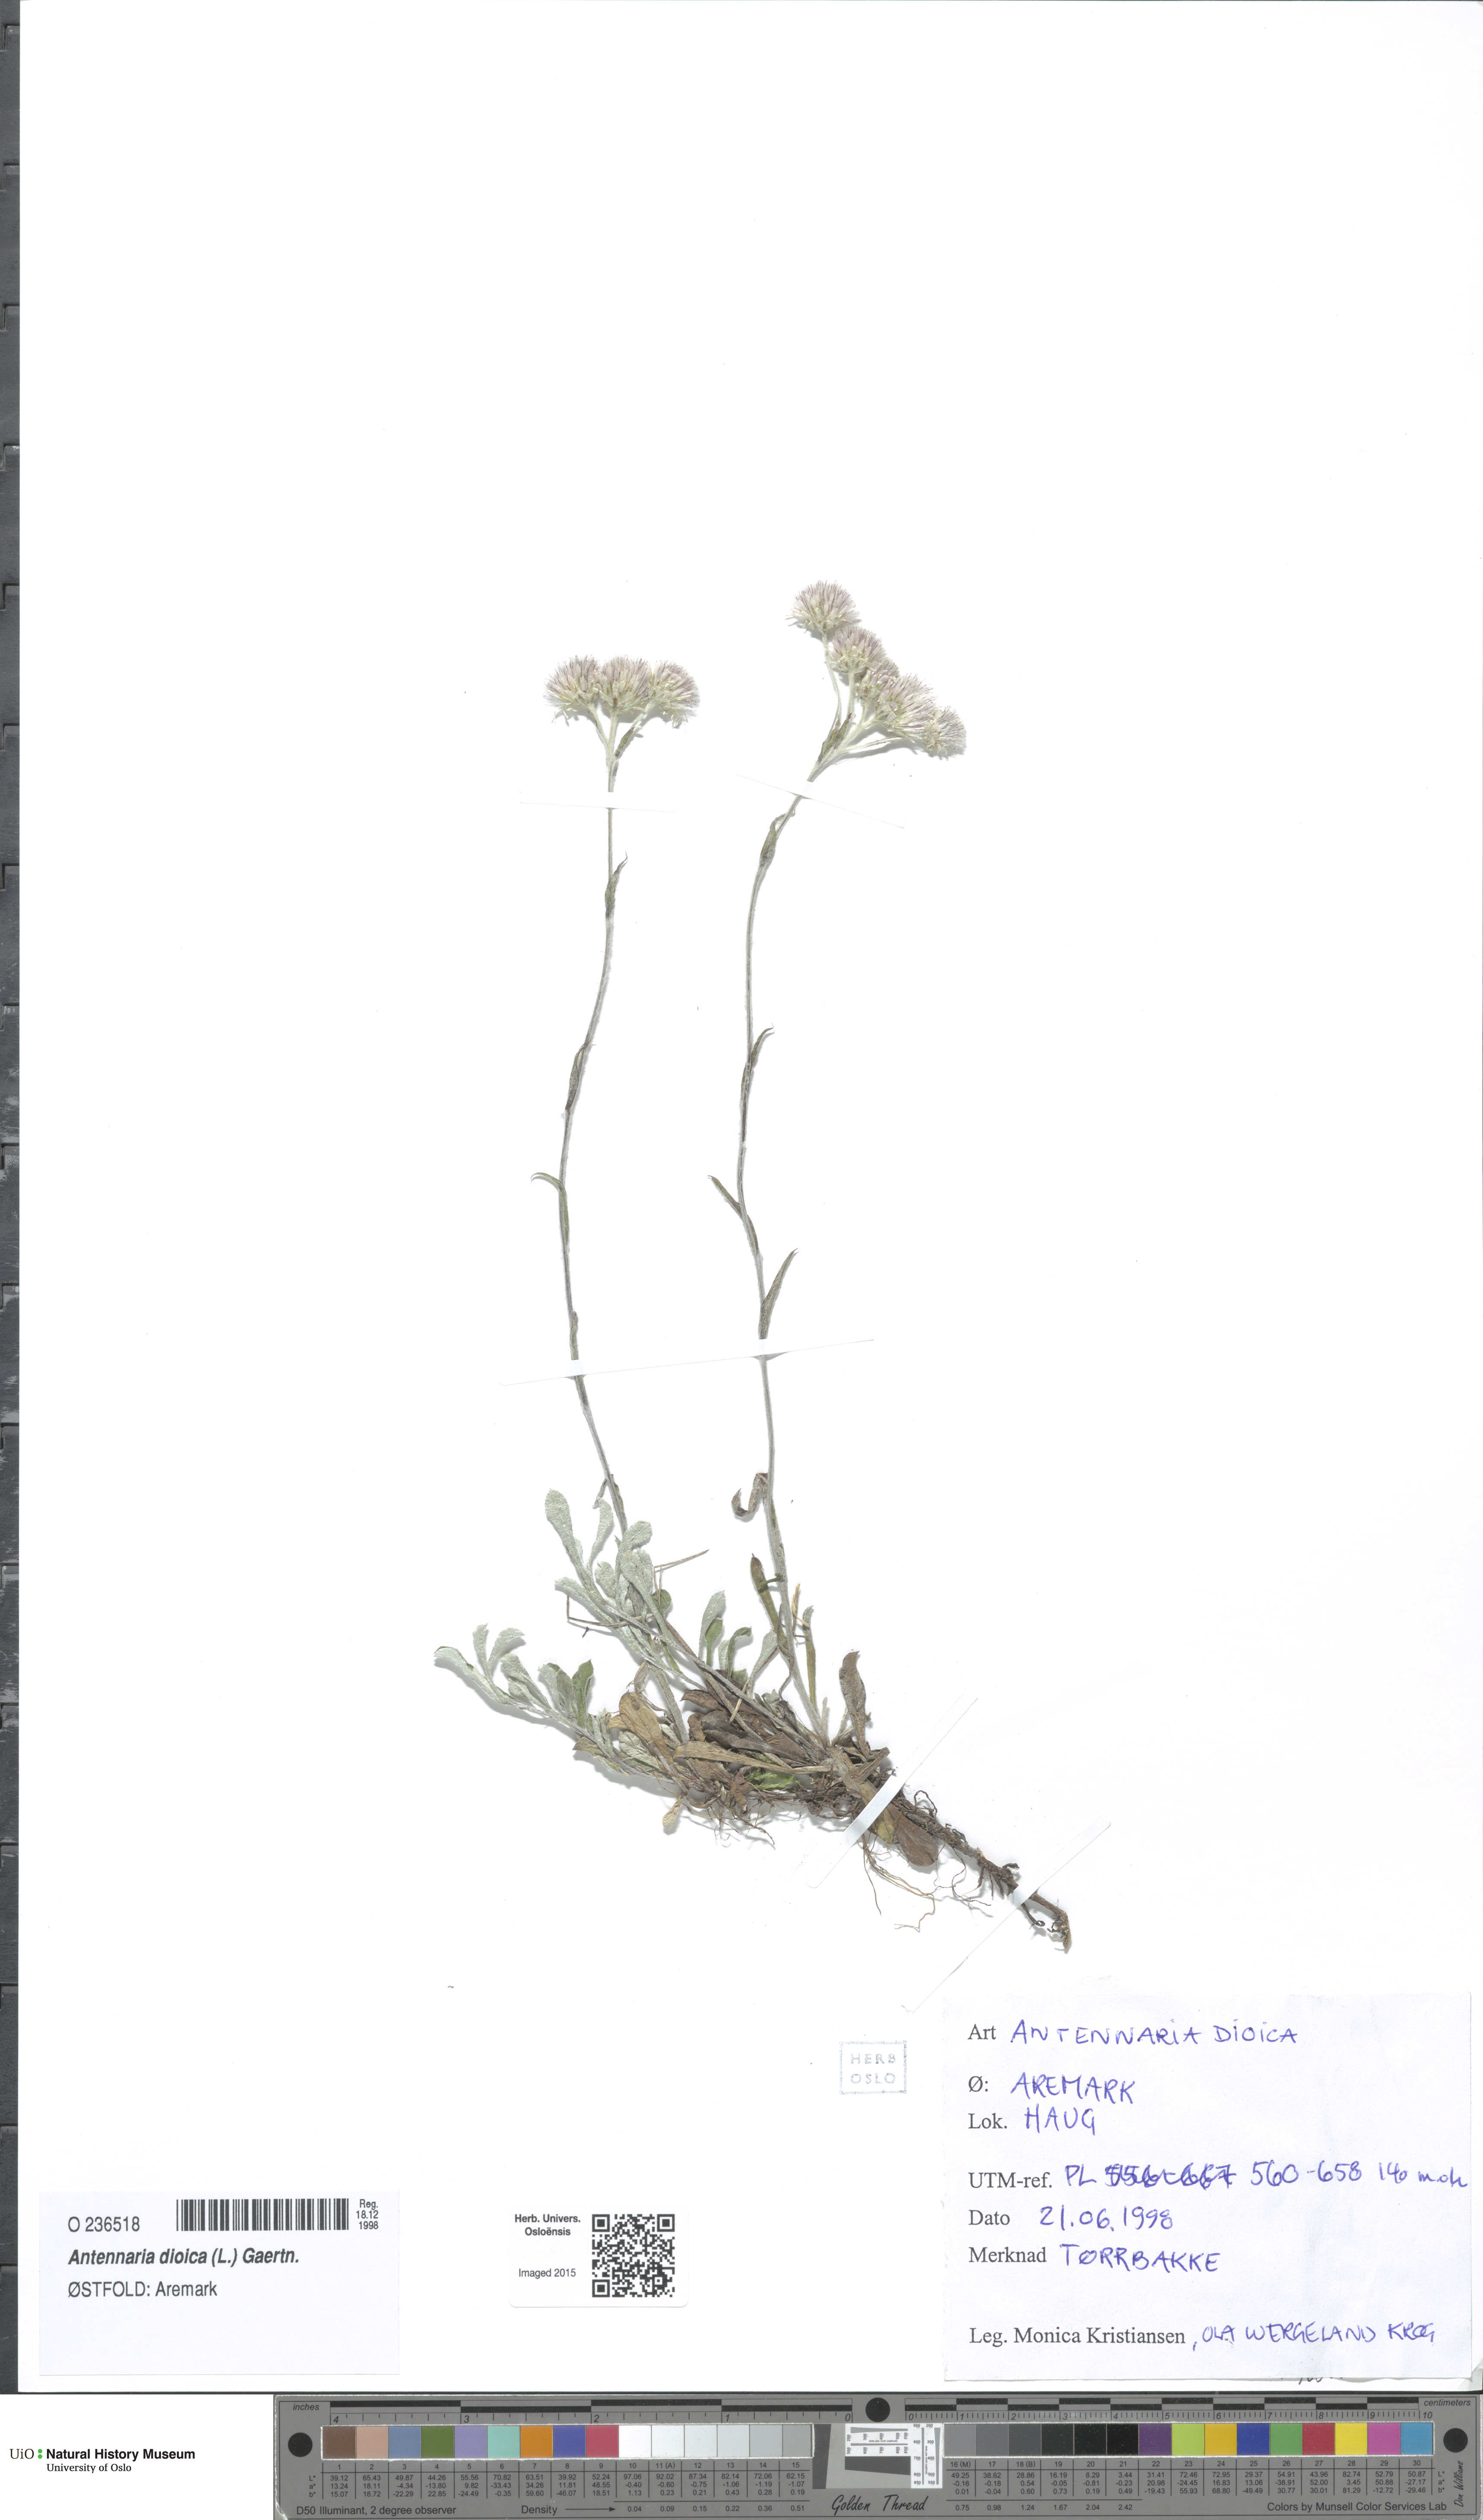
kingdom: Plantae
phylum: Tracheophyta
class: Magnoliopsida
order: Asterales
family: Asteraceae
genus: Antennaria
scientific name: Antennaria dioica
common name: Mountain everlasting
